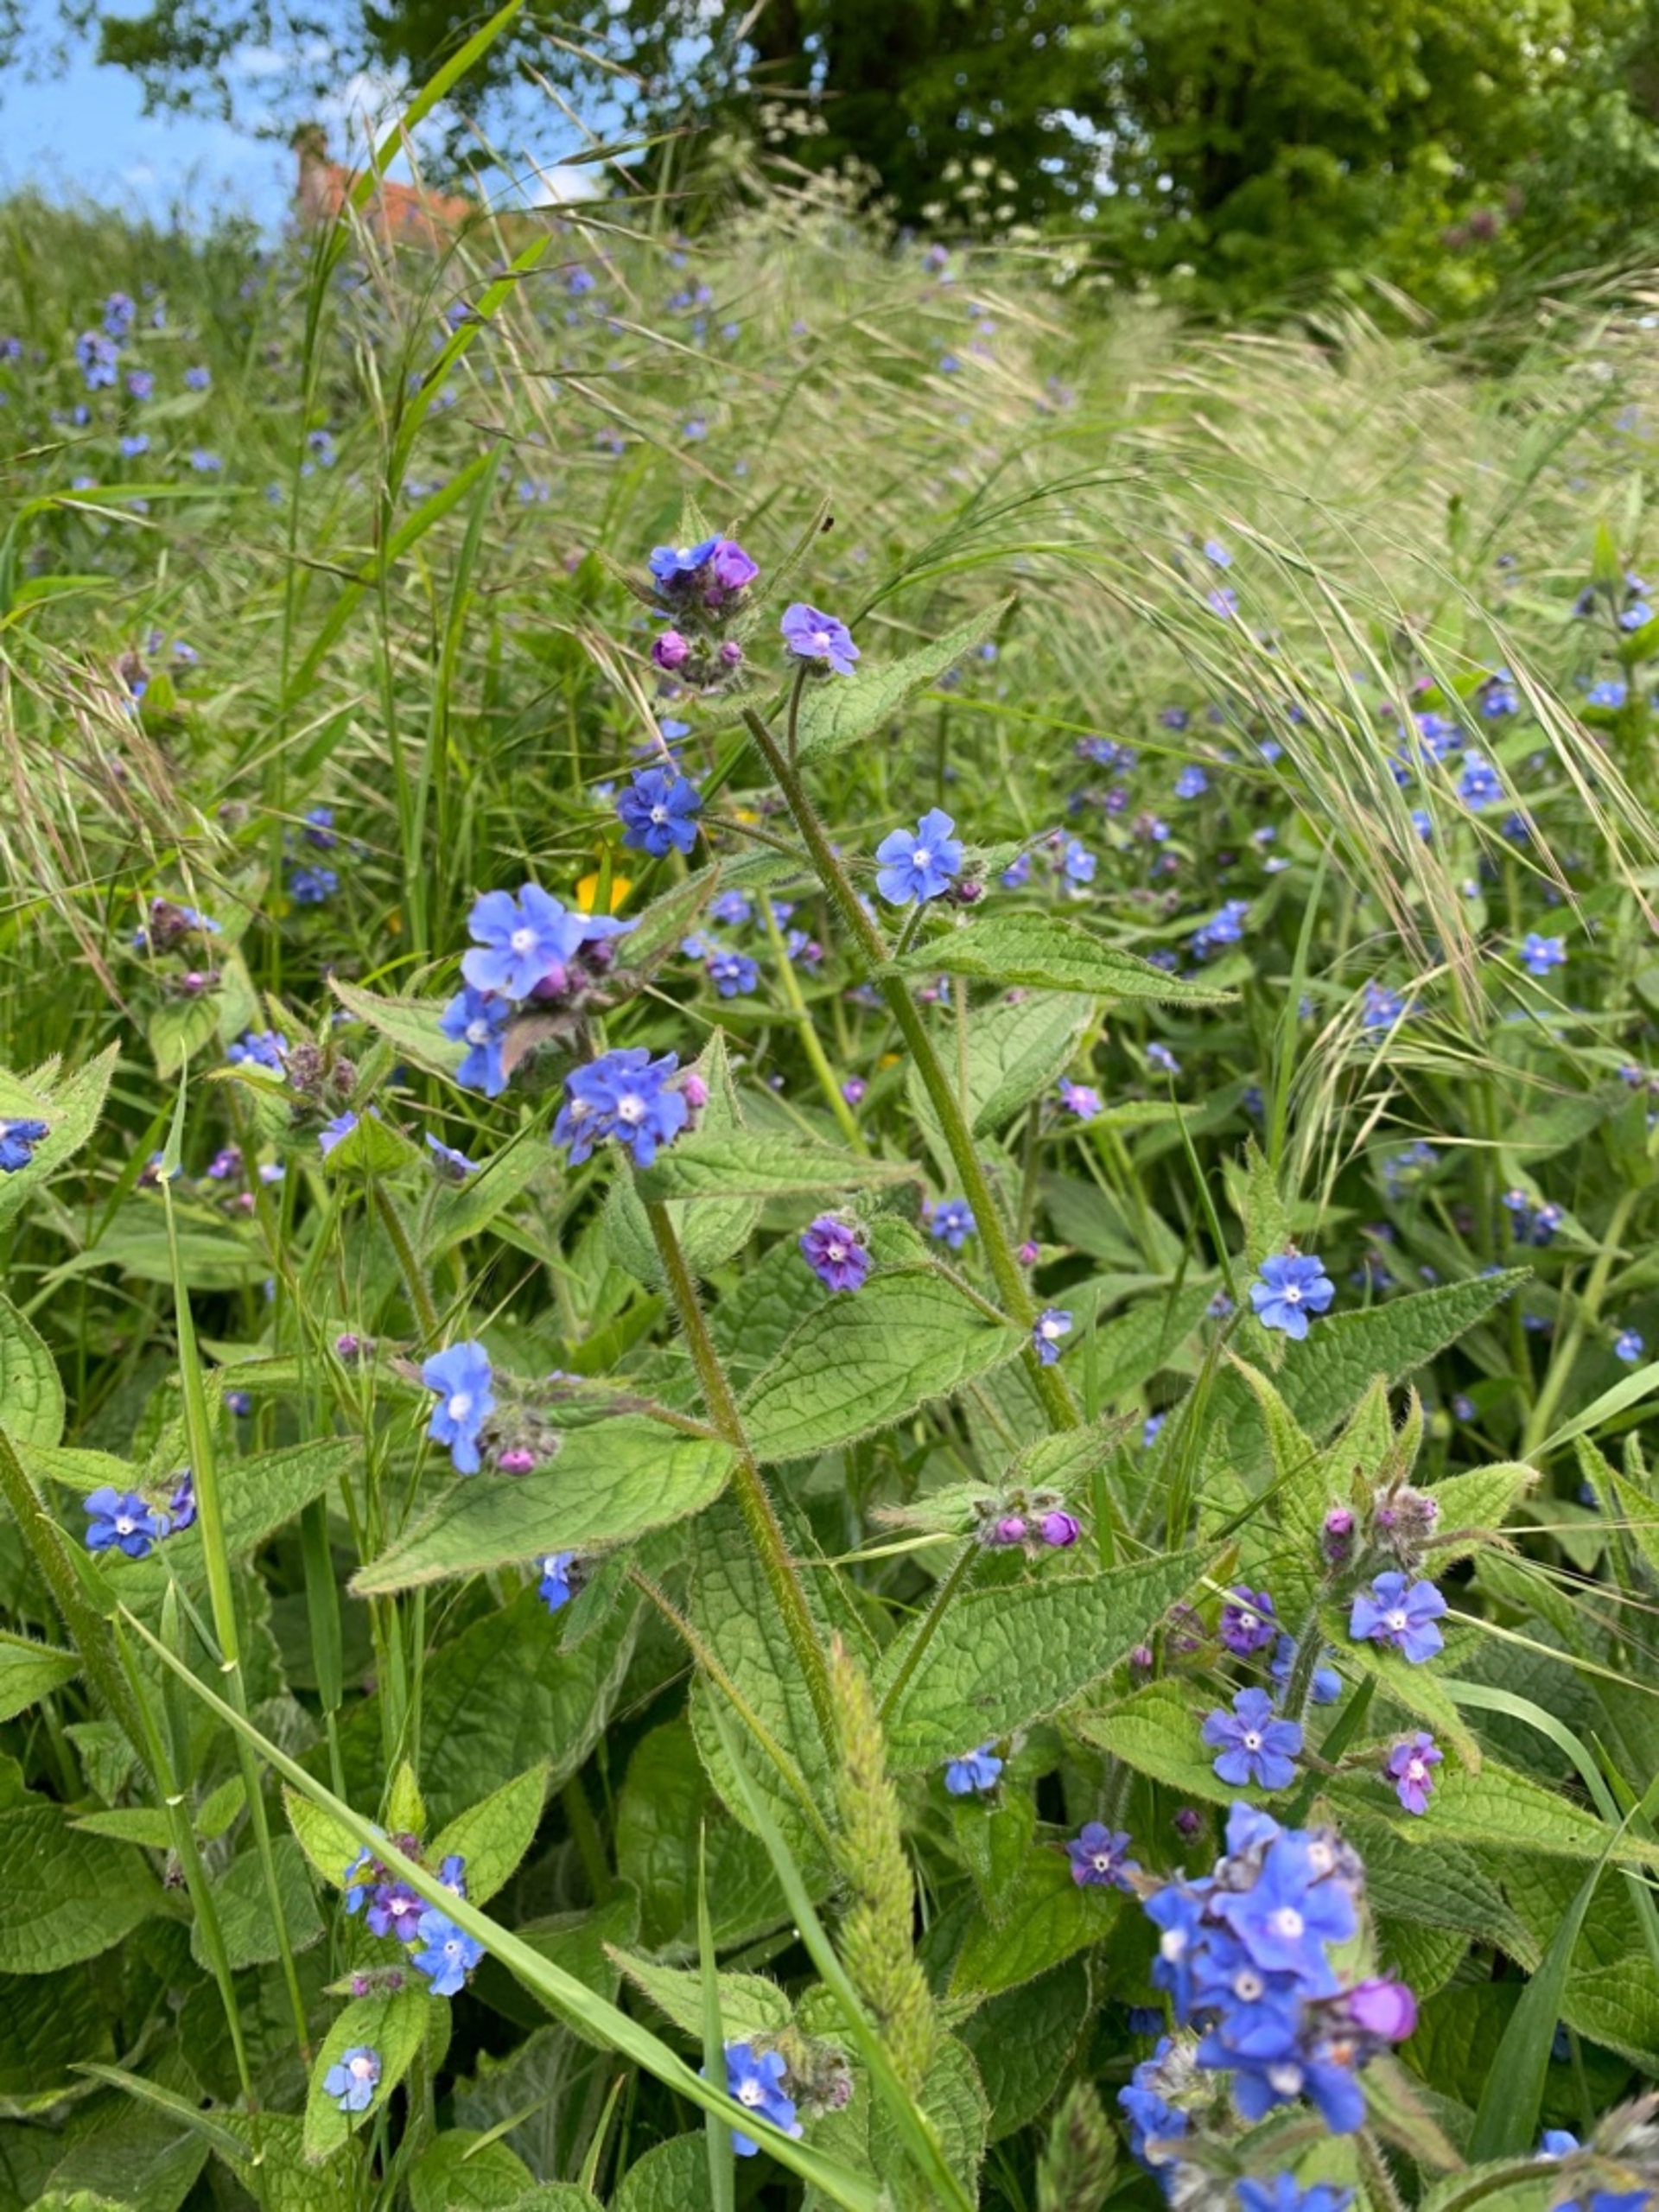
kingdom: Plantae
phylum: Tracheophyta
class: Magnoliopsida
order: Boraginales
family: Boraginaceae
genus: Pentaglottis
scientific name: Pentaglottis sempervirens
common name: Femtunge
